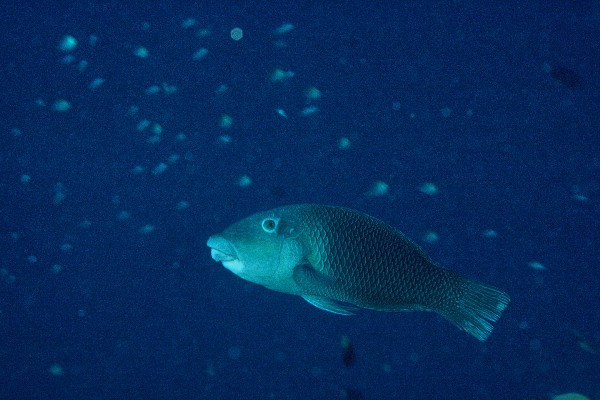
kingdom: Animalia
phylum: Chordata
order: Perciformes
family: Labridae
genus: Hemigymnus
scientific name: Hemigymnus melapterus
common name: Blackeye thicklip
